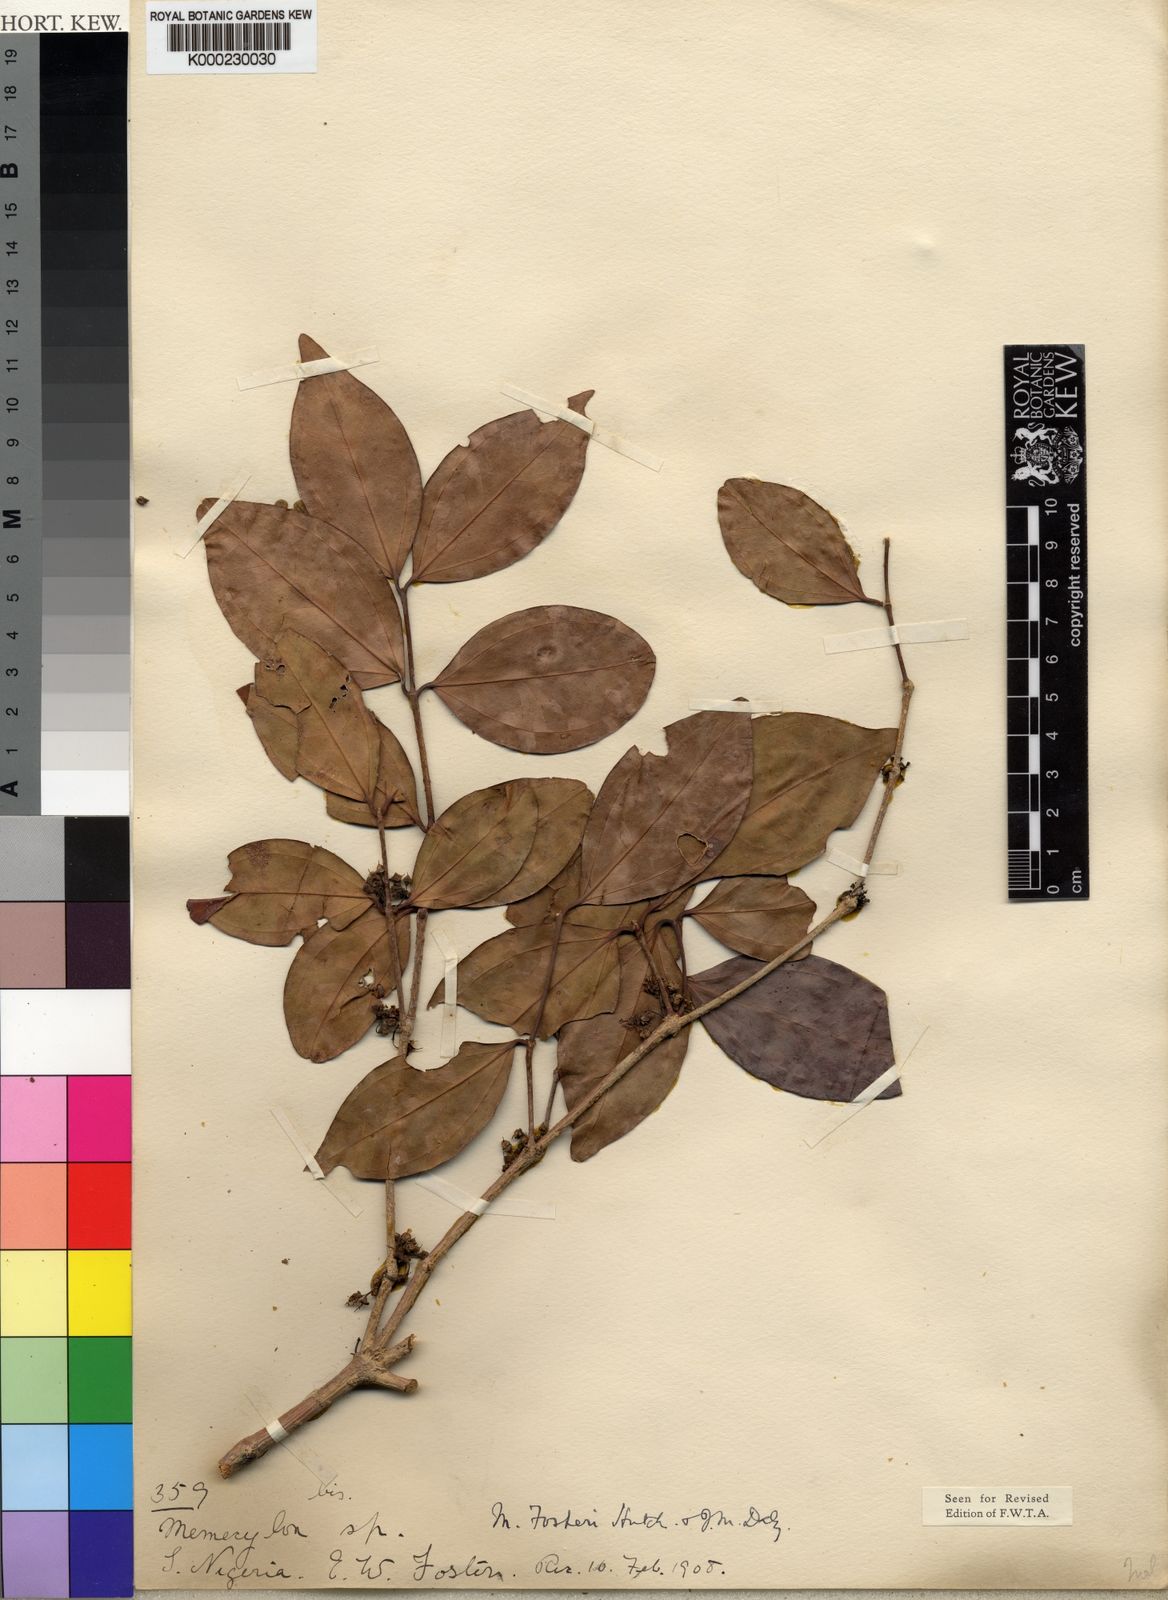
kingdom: Plantae
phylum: Tracheophyta
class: Magnoliopsida
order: Myrtales
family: Melastomataceae
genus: Warneckea
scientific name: Warneckea
